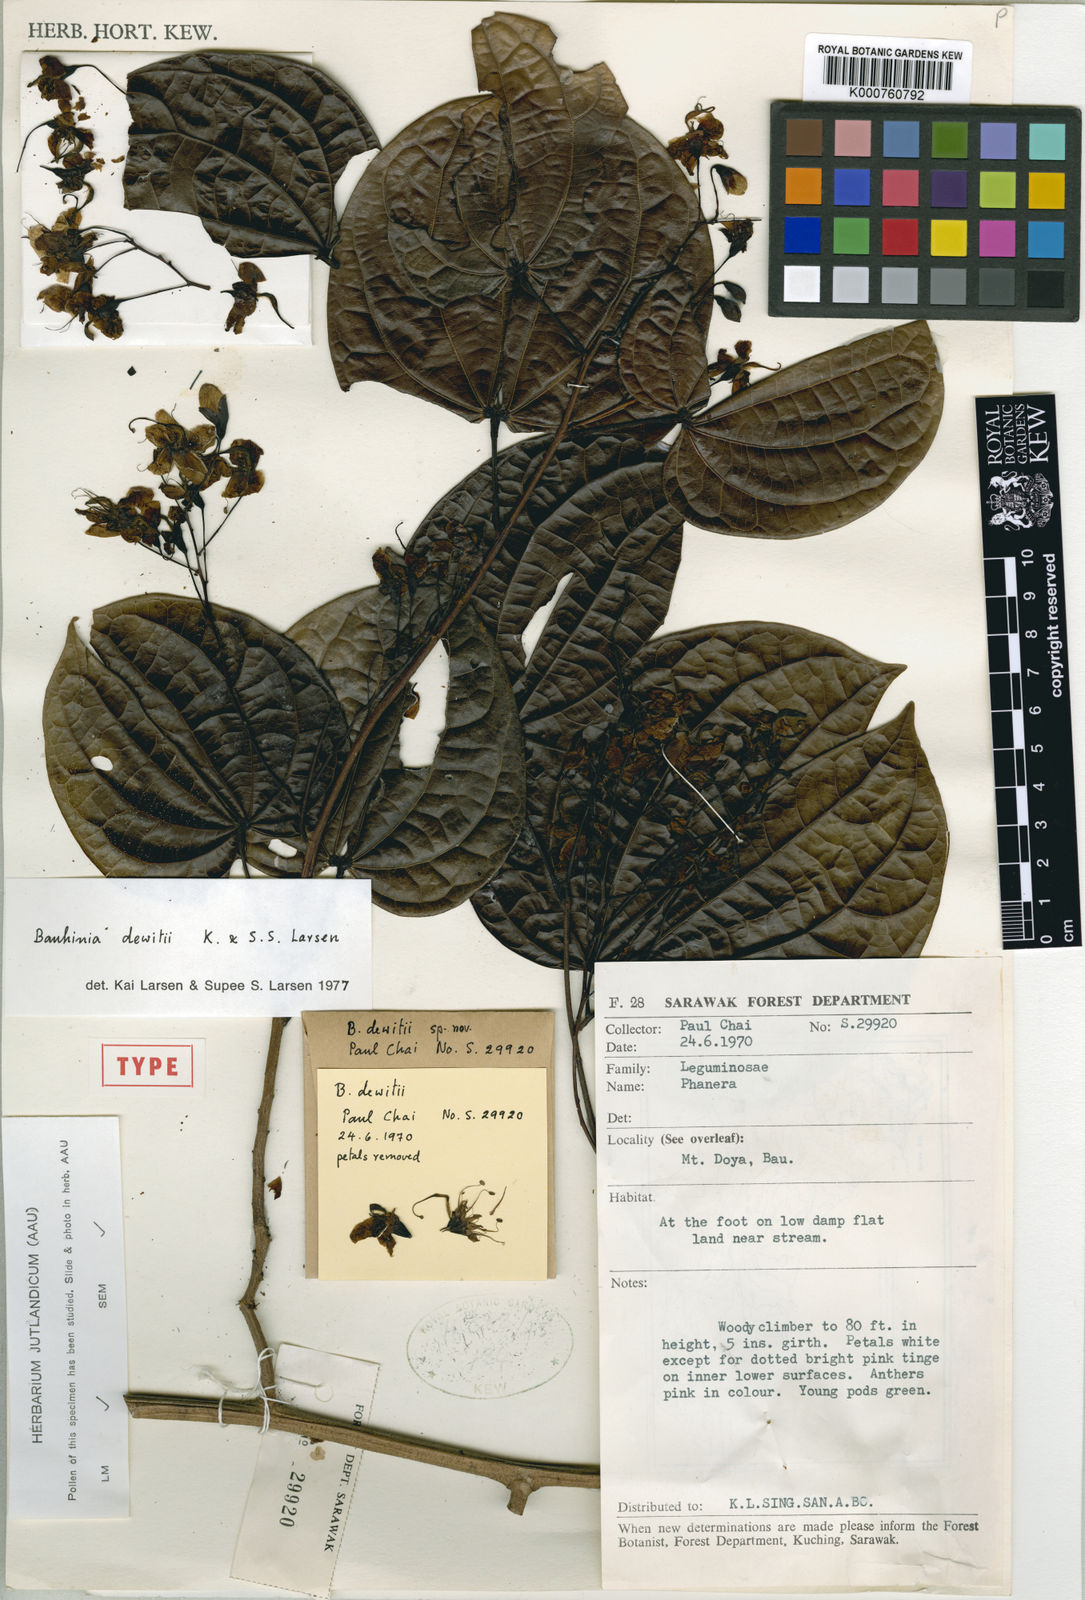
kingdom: Plantae
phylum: Tracheophyta
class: Magnoliopsida
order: Fabales
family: Fabaceae
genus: Lysiphyllum
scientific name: Lysiphyllum dewitii
